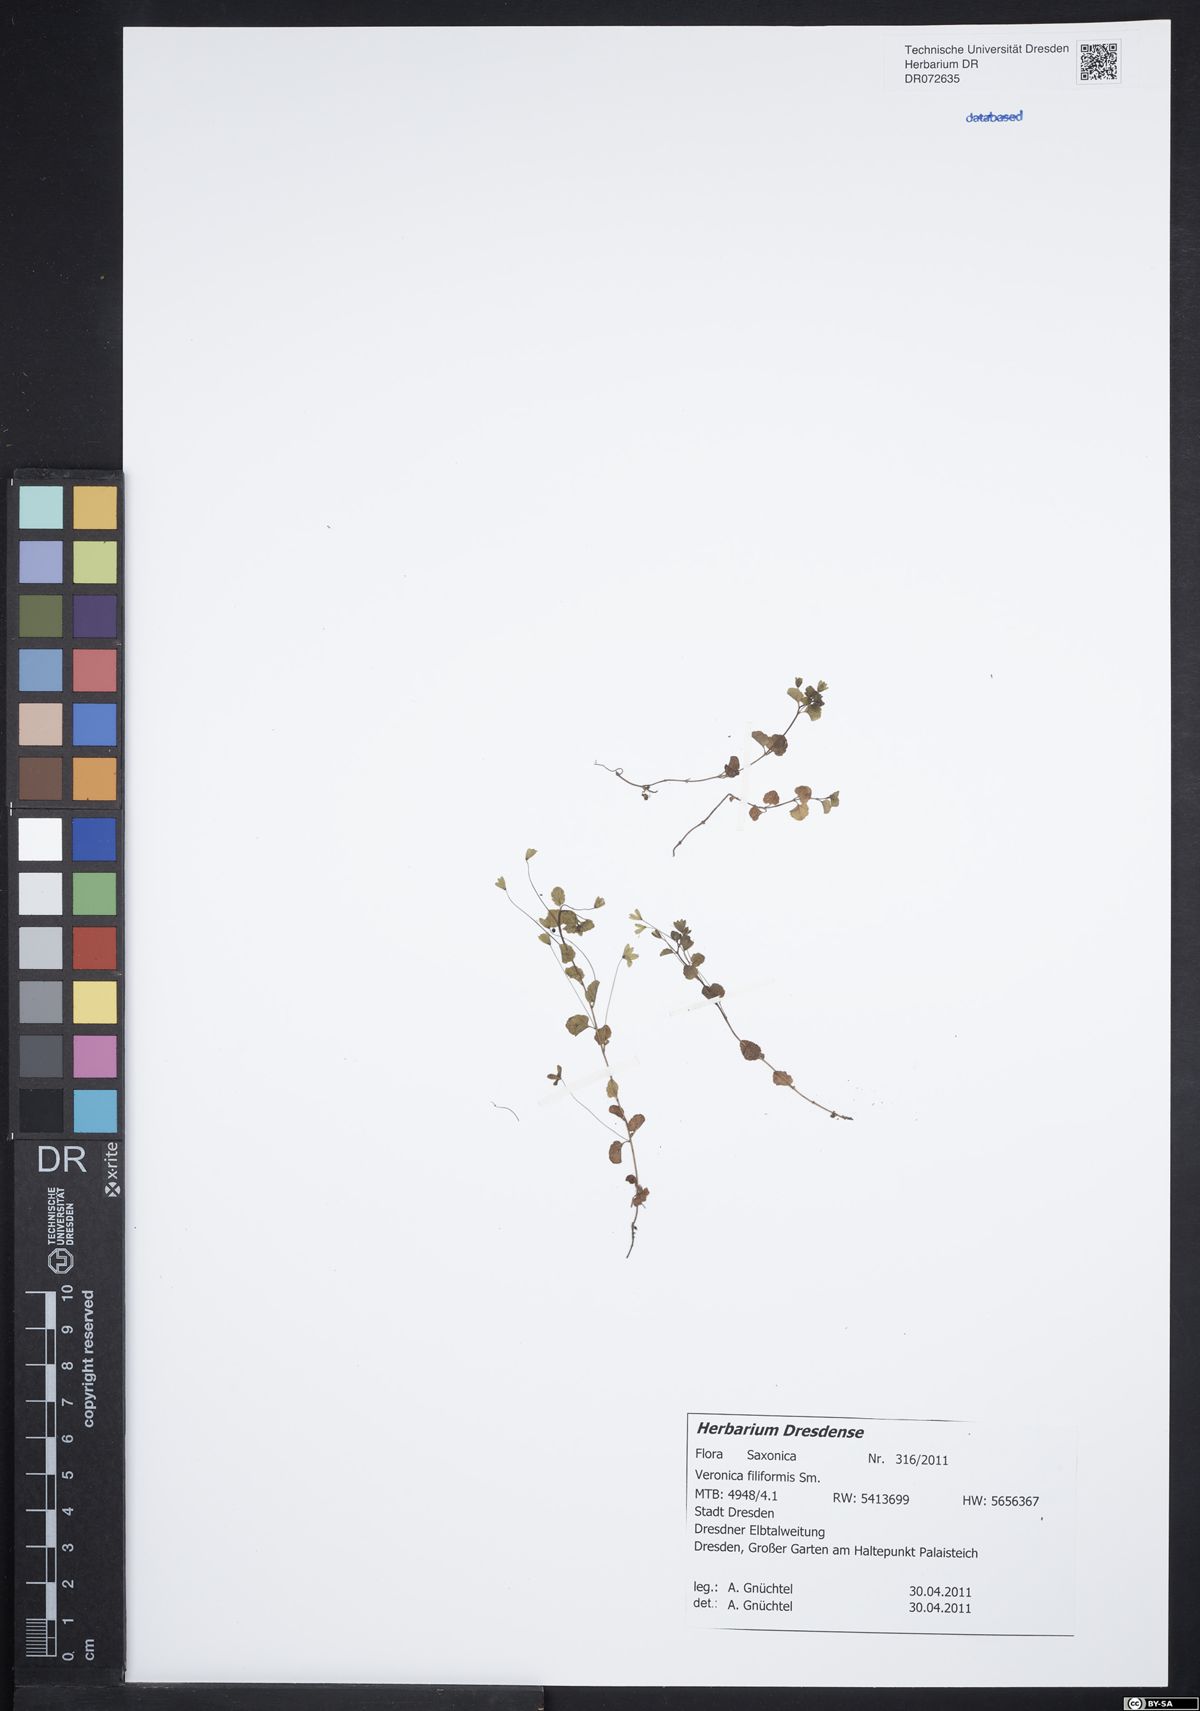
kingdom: Plantae
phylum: Tracheophyta
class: Magnoliopsida
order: Lamiales
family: Plantaginaceae
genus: Veronica
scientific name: Veronica filiformis
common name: Slender speedwell
